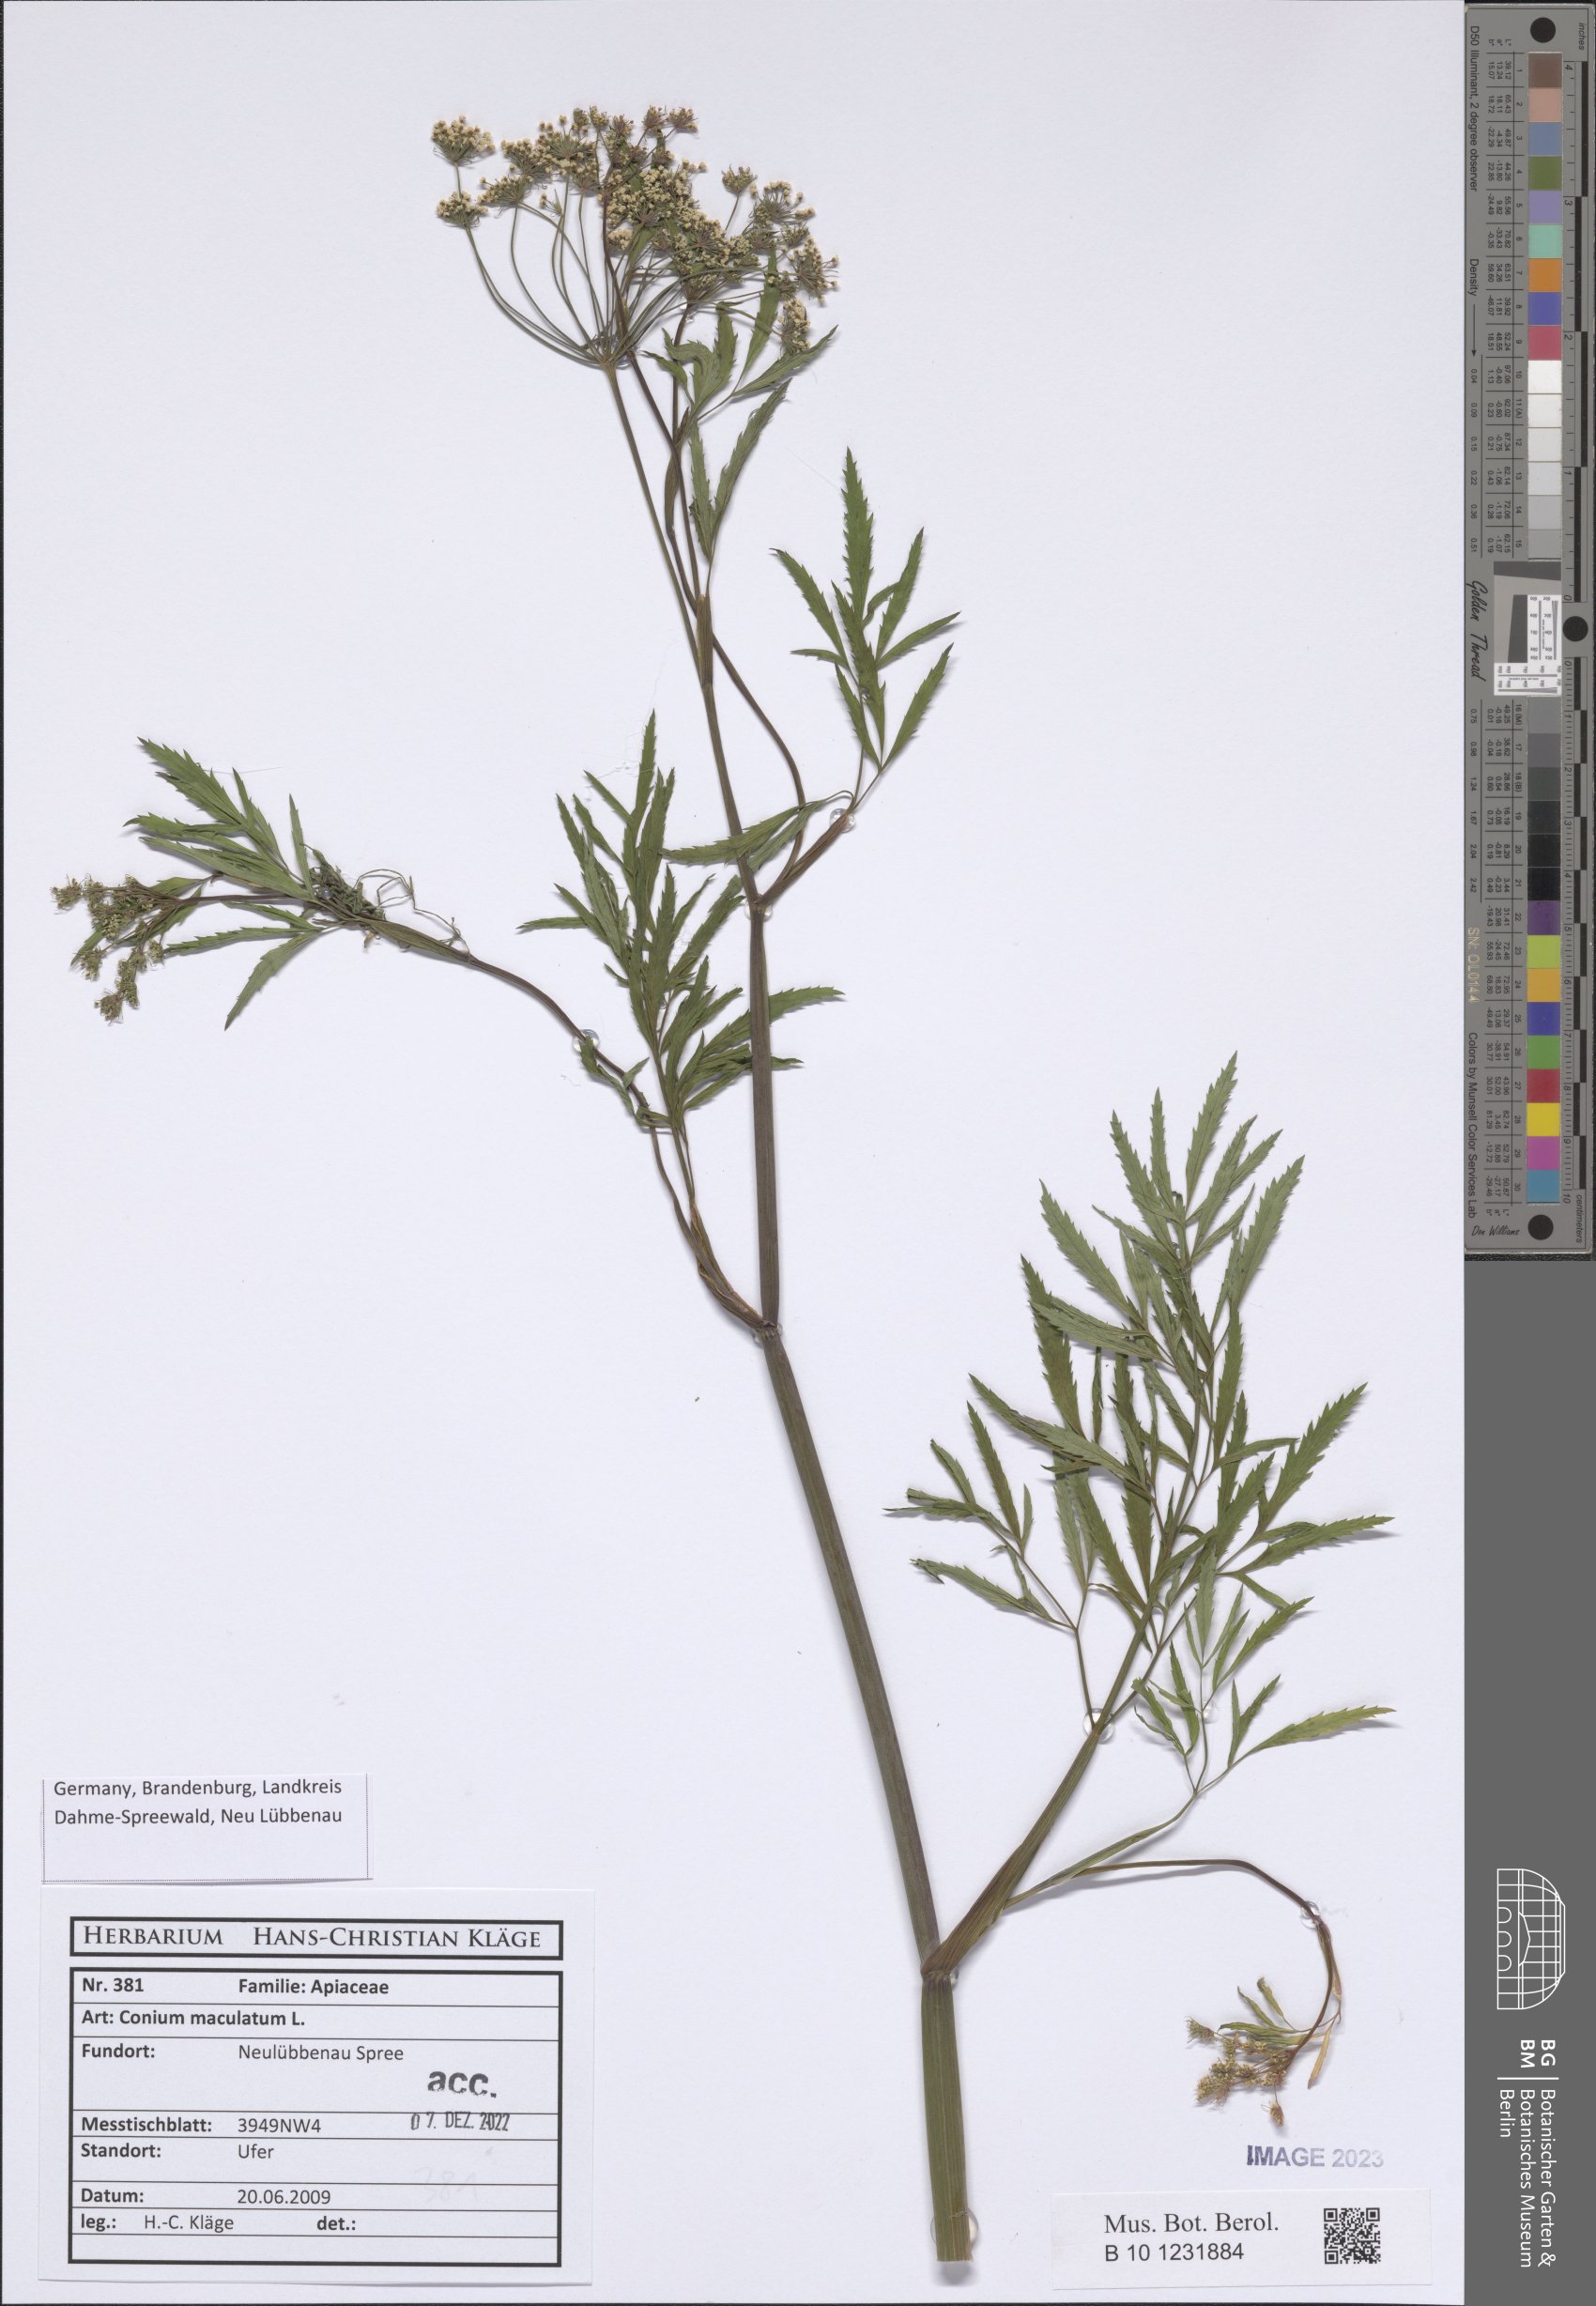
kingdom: Plantae
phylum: Tracheophyta
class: Magnoliopsida
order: Apiales
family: Apiaceae
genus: Conium
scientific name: Conium maculatum
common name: Hemlock
